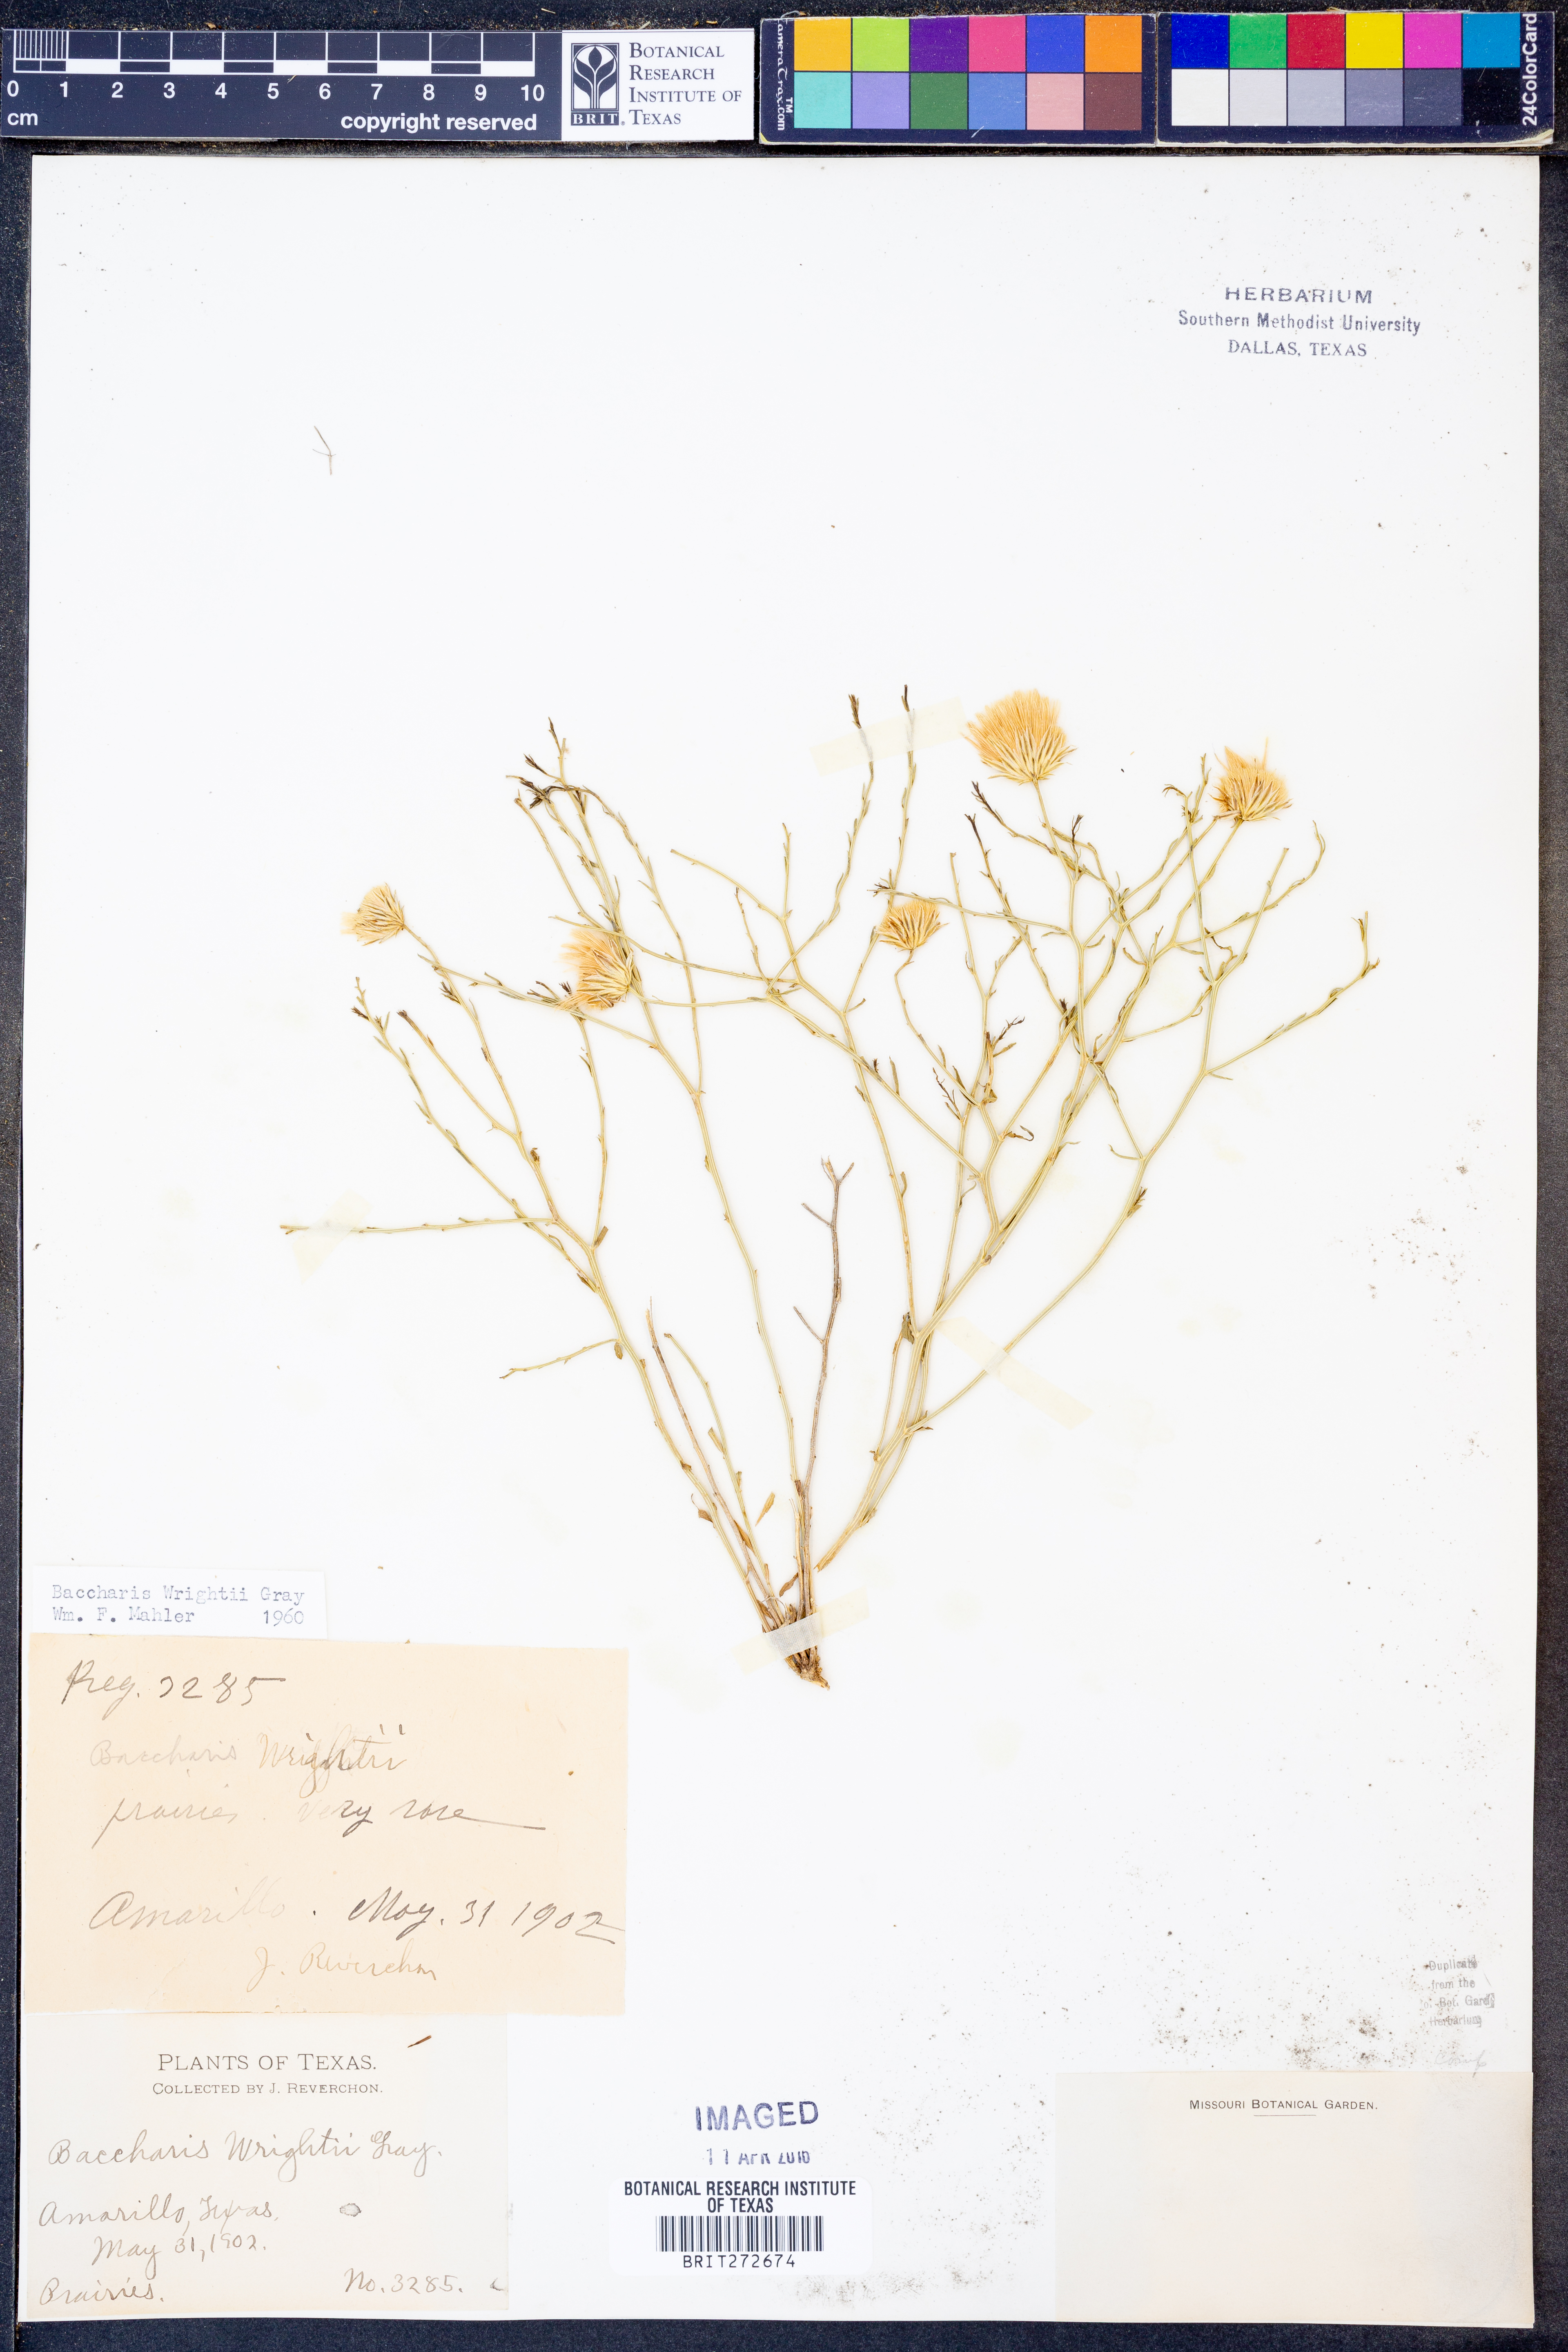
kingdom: Plantae
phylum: Tracheophyta
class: Magnoliopsida
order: Asterales
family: Asteraceae
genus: Baccharis
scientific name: Baccharis wrightii
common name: Wright's baccharis
